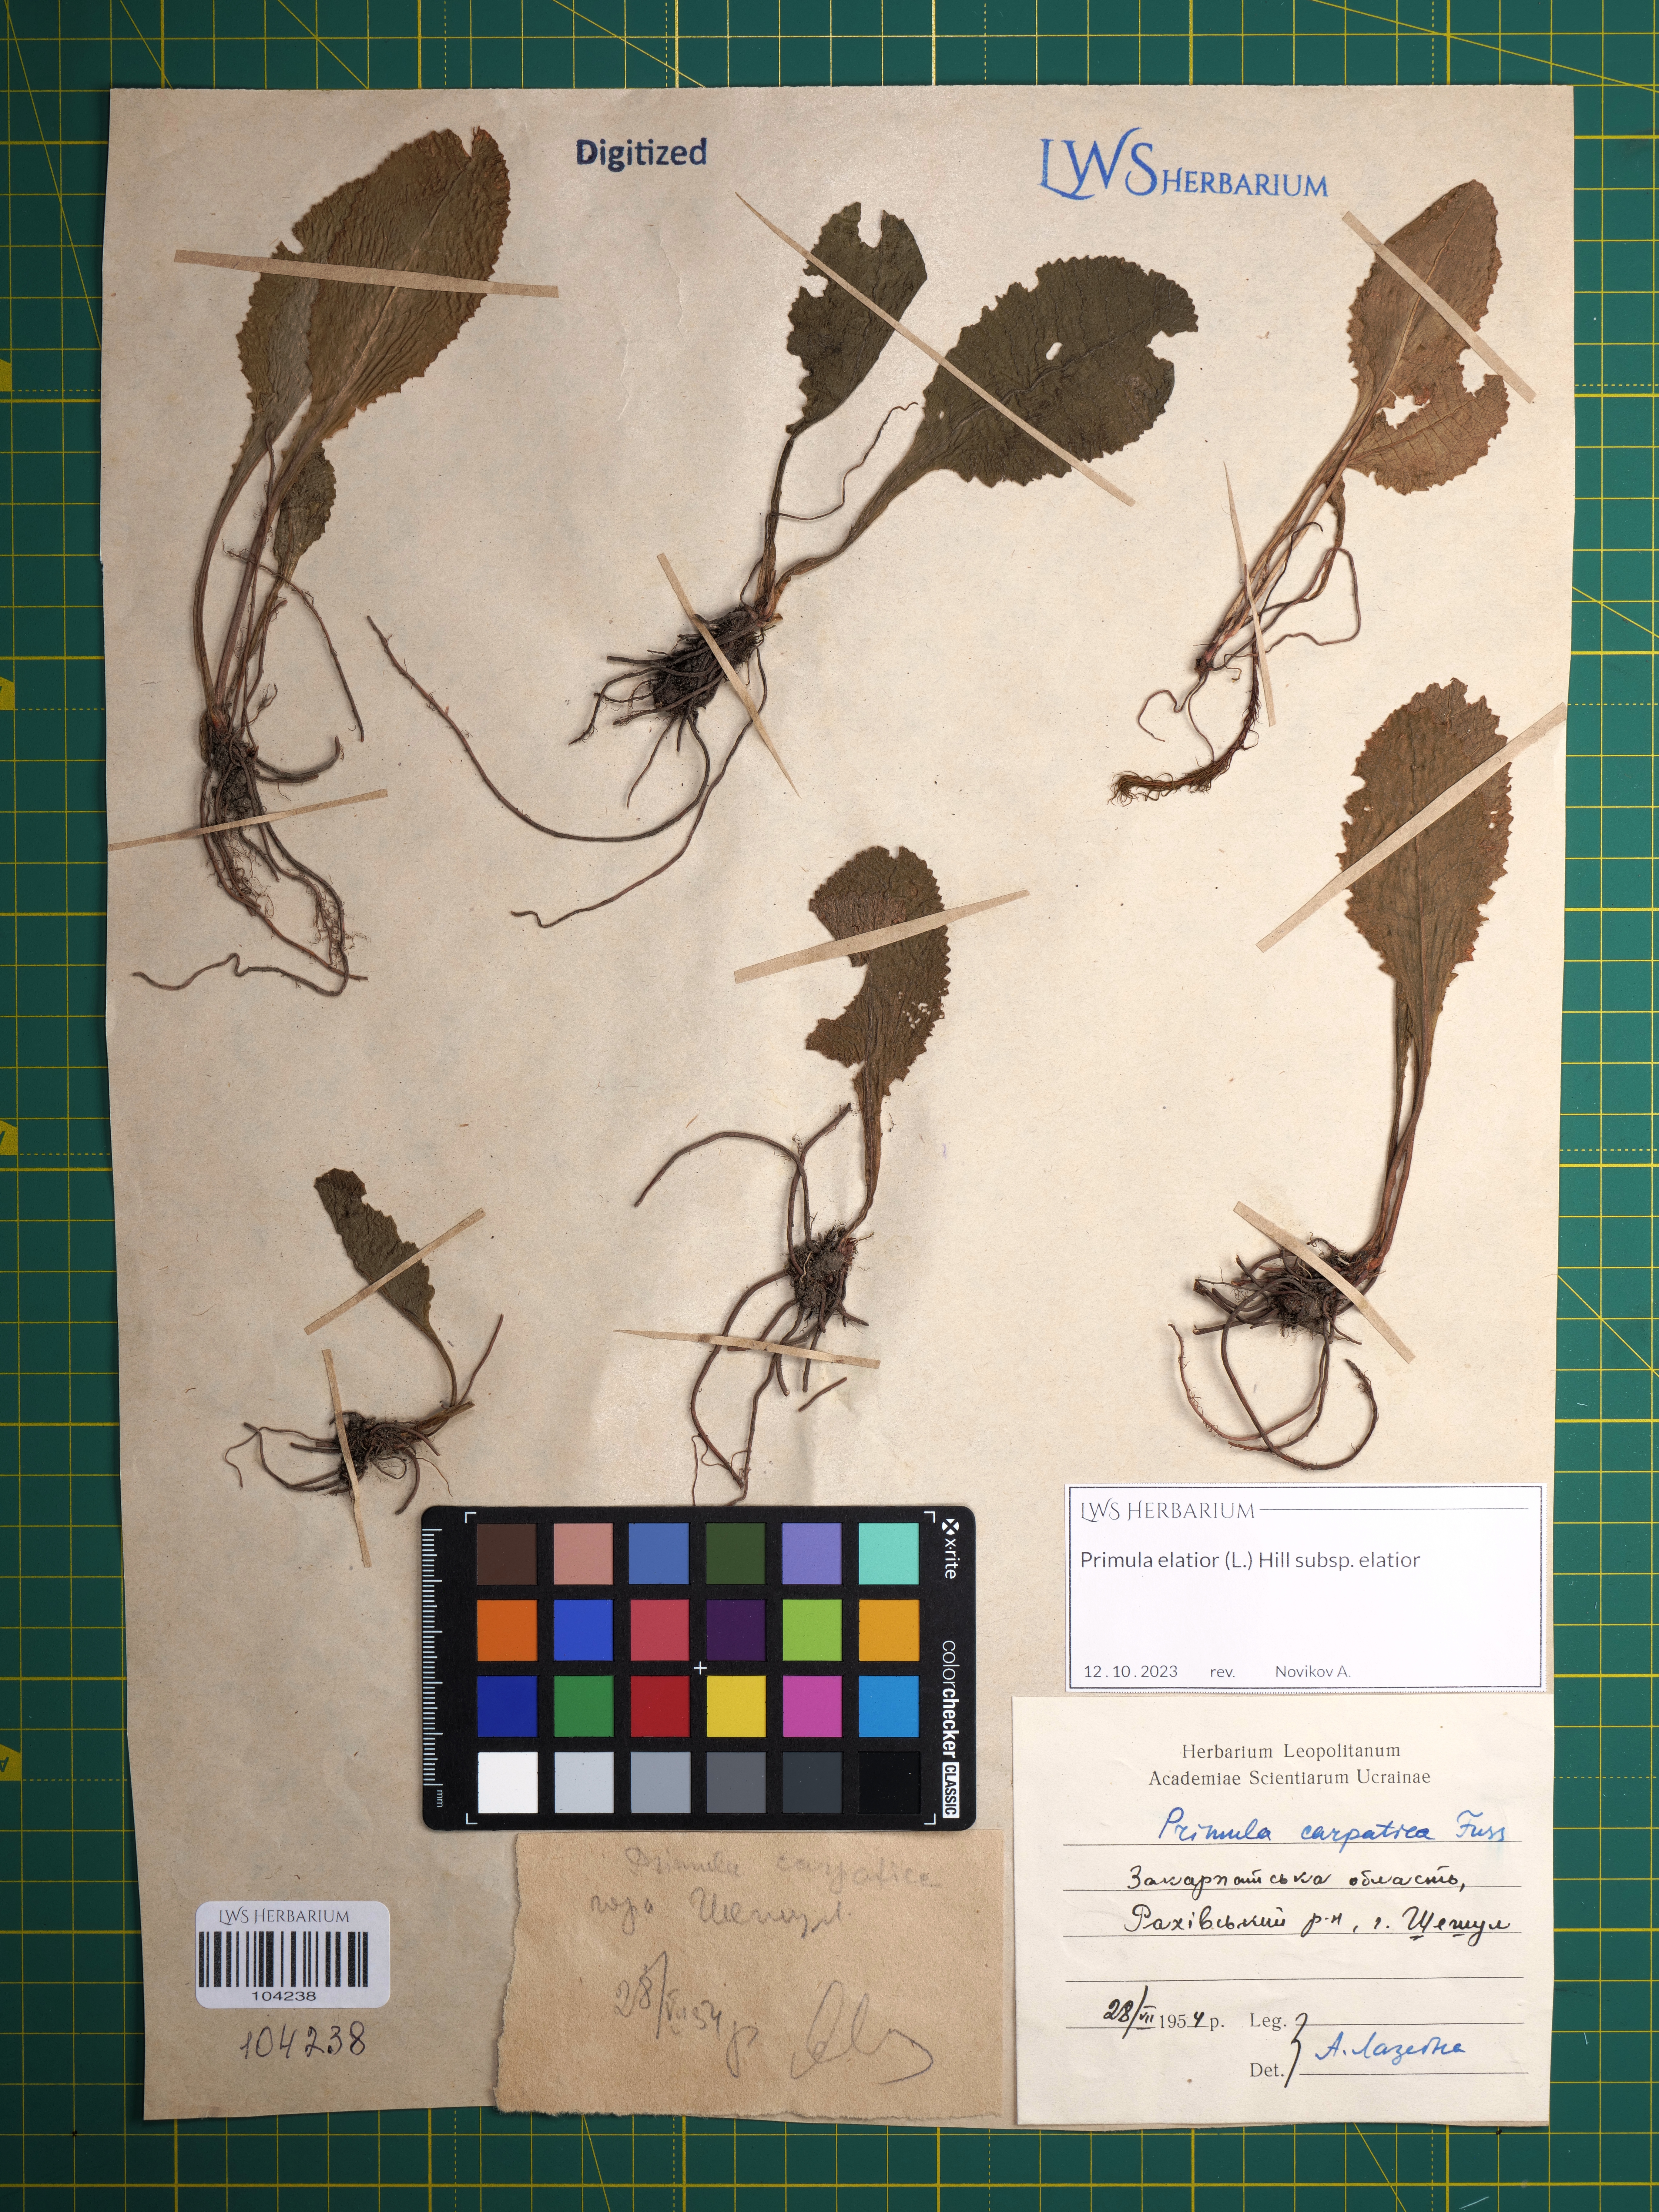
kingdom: Plantae
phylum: Tracheophyta
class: Magnoliopsida
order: Ericales
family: Primulaceae
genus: Primula
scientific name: Primula elatior
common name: Oxlip
